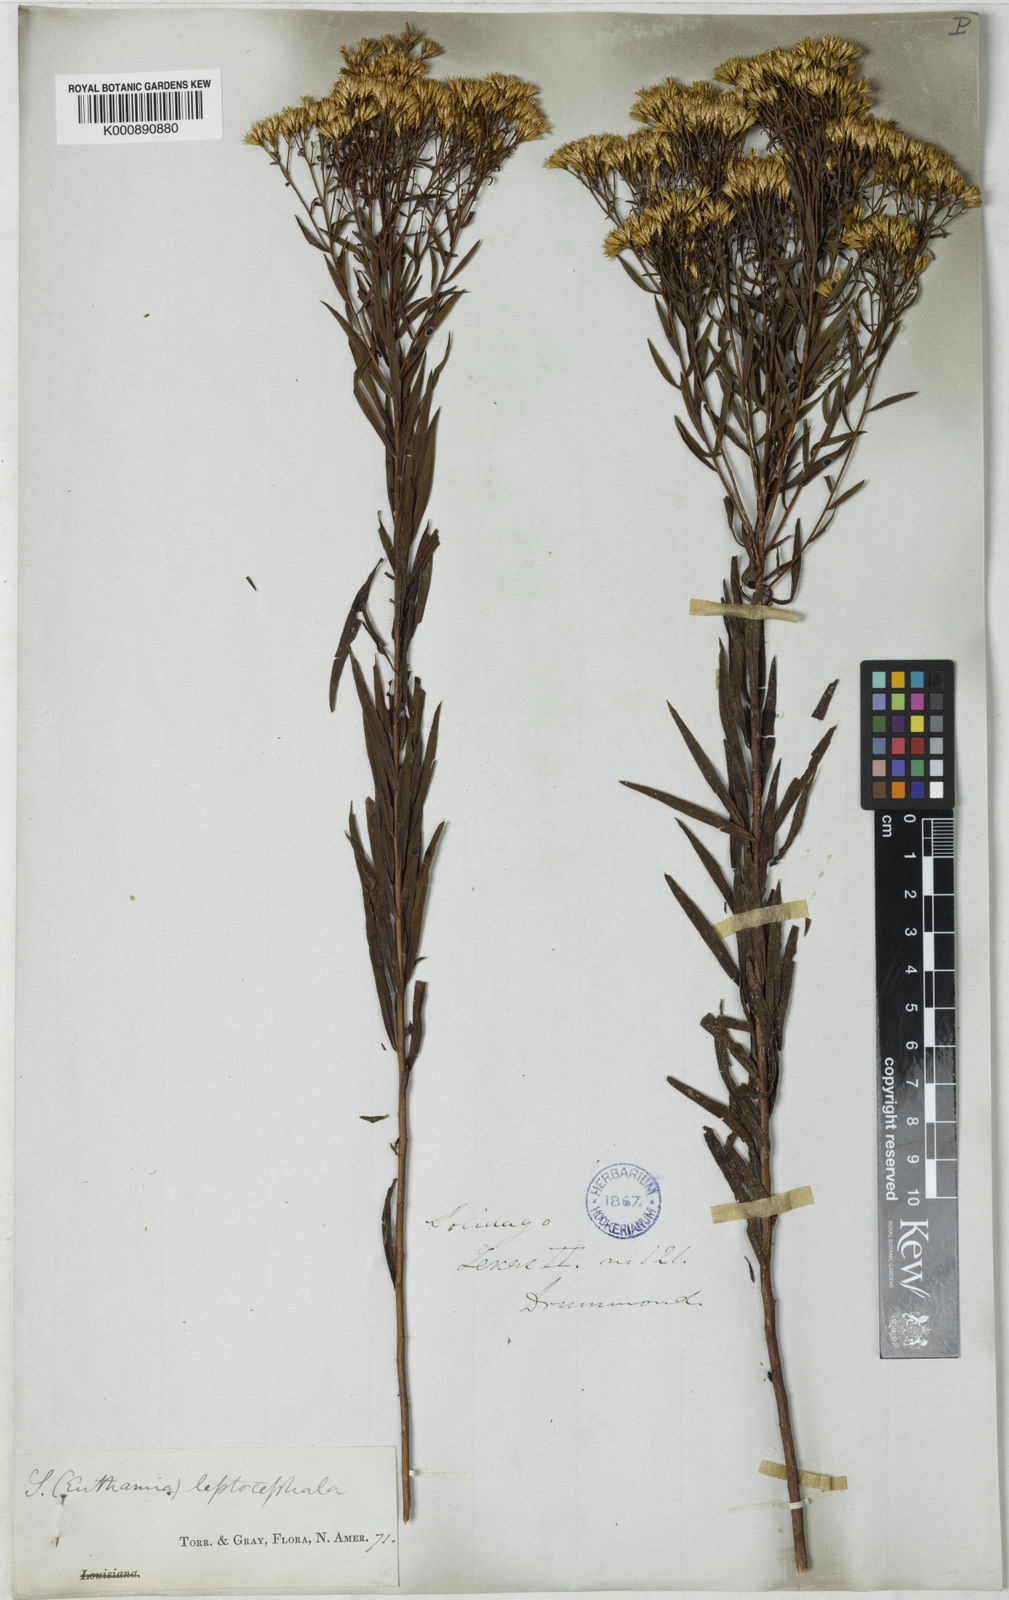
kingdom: Plantae
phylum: Tracheophyta
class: Magnoliopsida
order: Asterales
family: Asteraceae
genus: Euthamia
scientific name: Euthamia leptocephala
